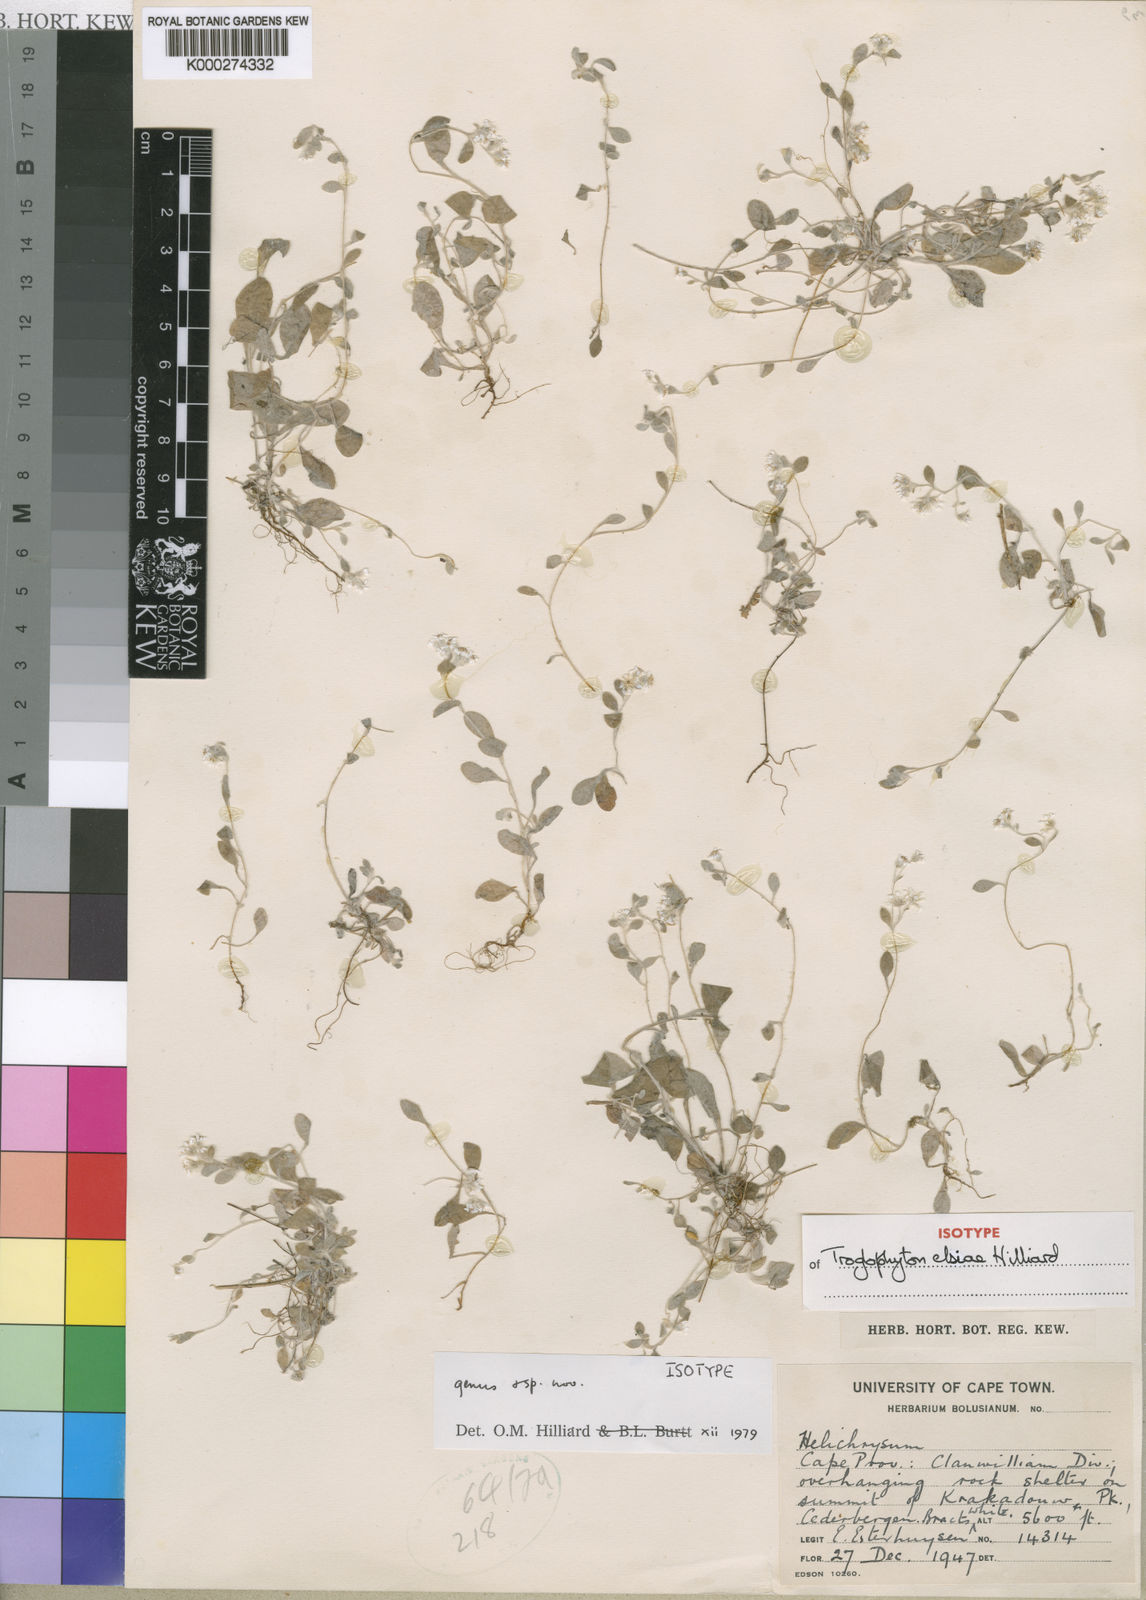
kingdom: Plantae
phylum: Tracheophyta
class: Magnoliopsida
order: Asterales
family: Asteraceae
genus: Troglophyton
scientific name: Troglophyton elsiae
